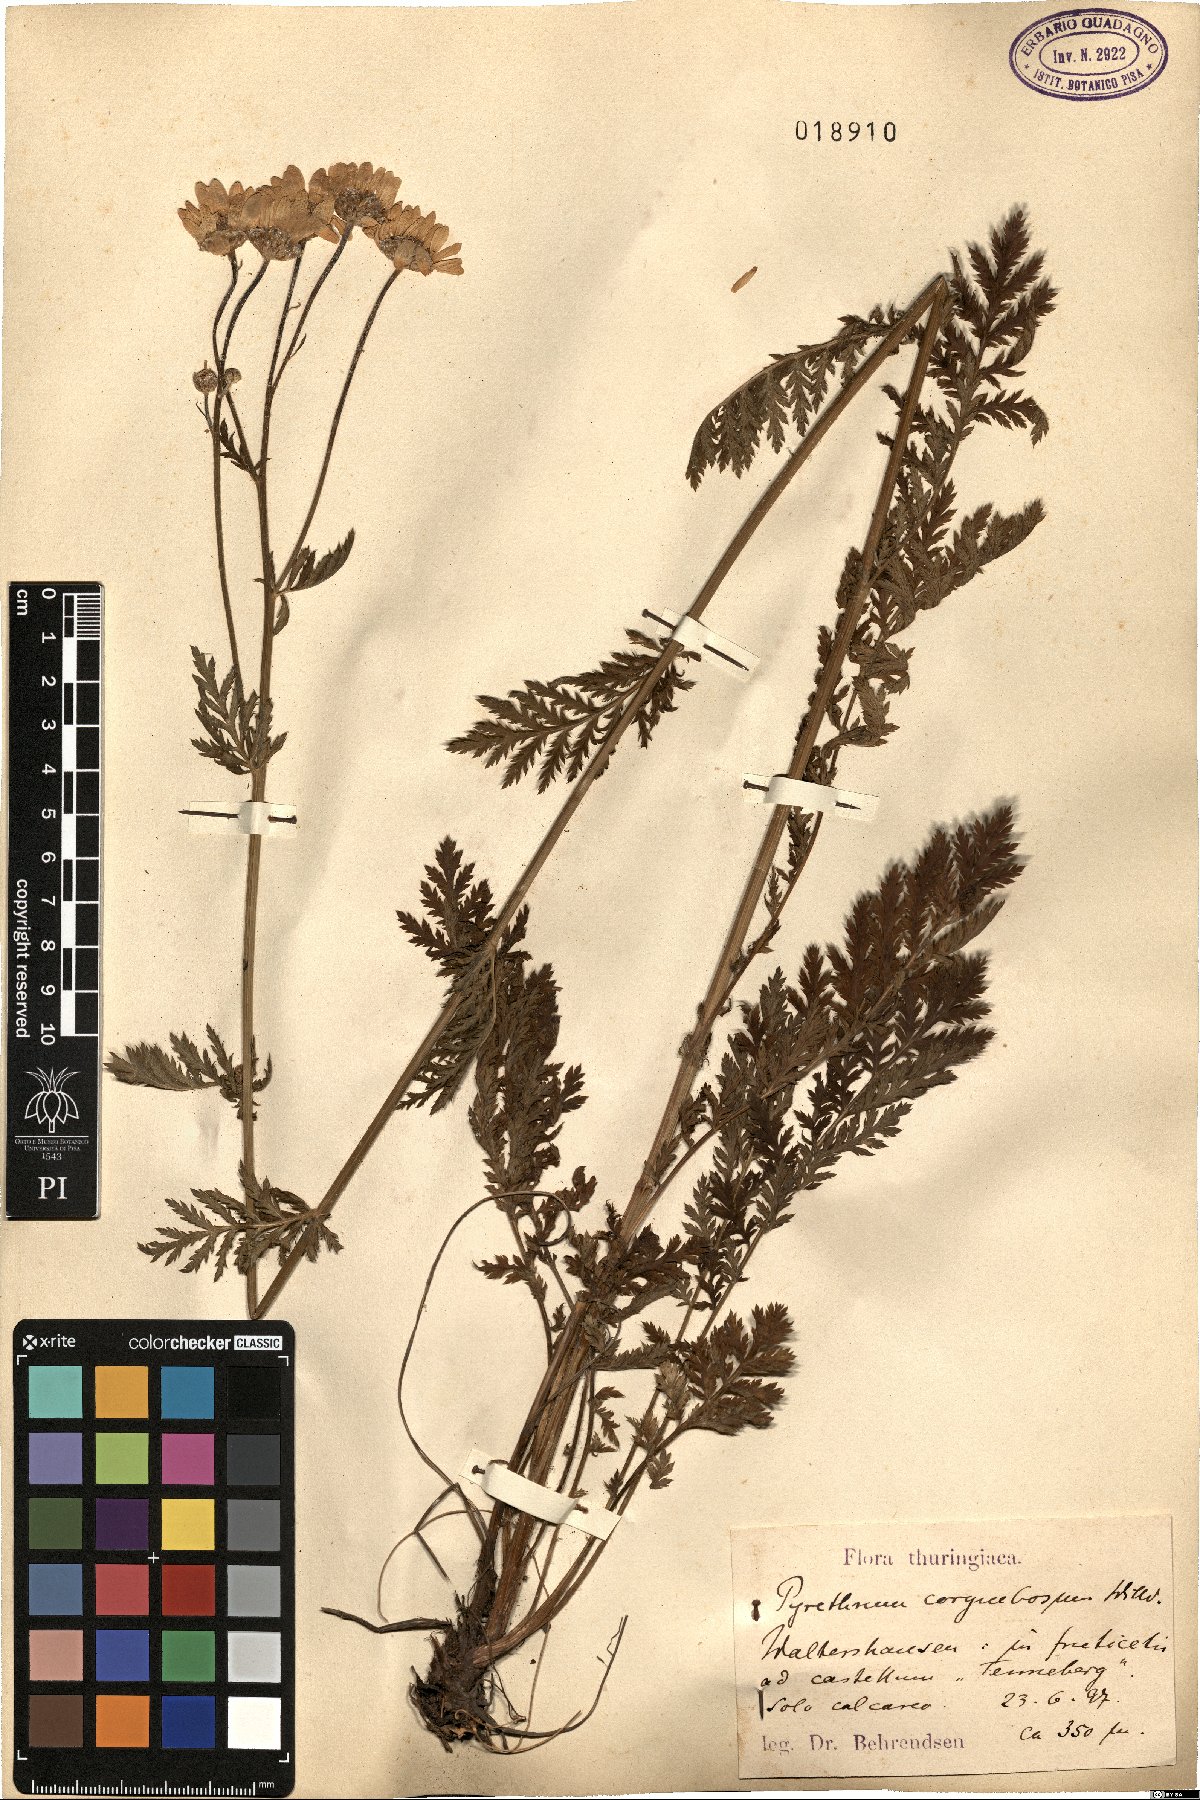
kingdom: Plantae
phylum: Tracheophyta
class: Magnoliopsida
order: Asterales
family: Asteraceae
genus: Tanacetum
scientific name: Tanacetum corymbosum
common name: Scentless feverfew
